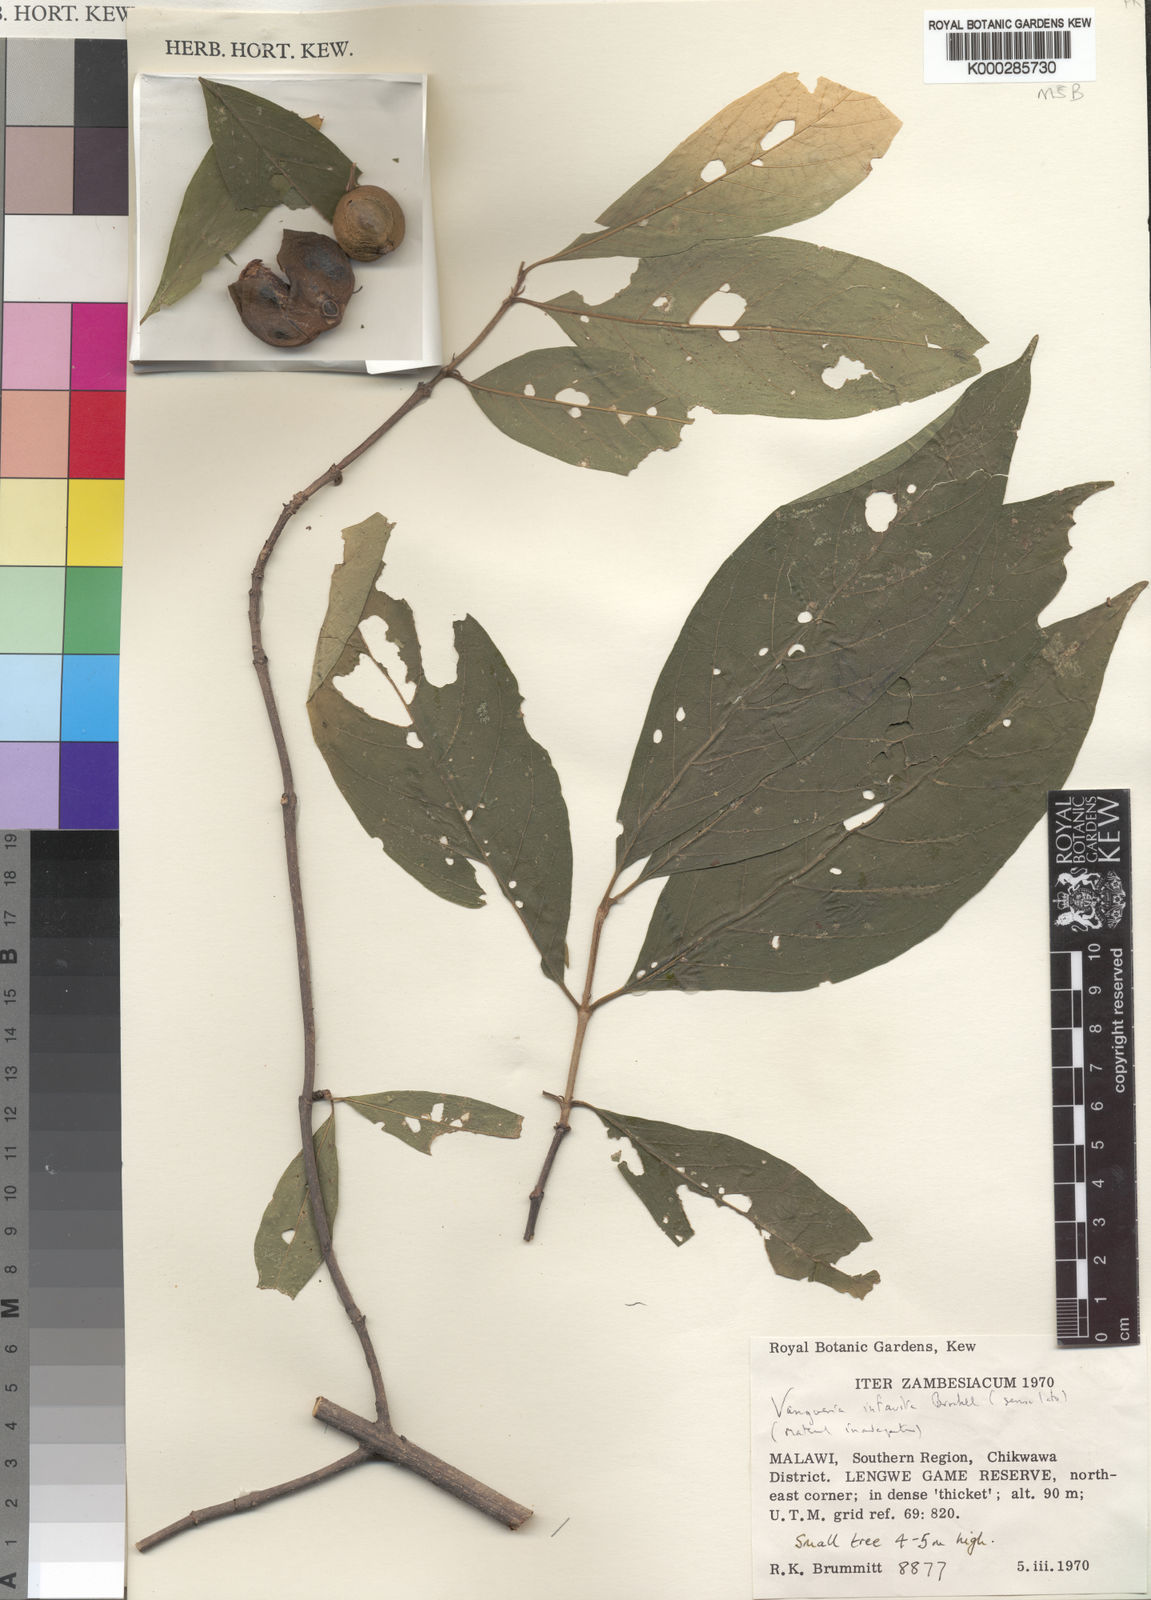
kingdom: Plantae
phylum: Tracheophyta
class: Magnoliopsida
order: Gentianales
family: Rubiaceae
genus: Vangueria
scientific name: Vangueria
